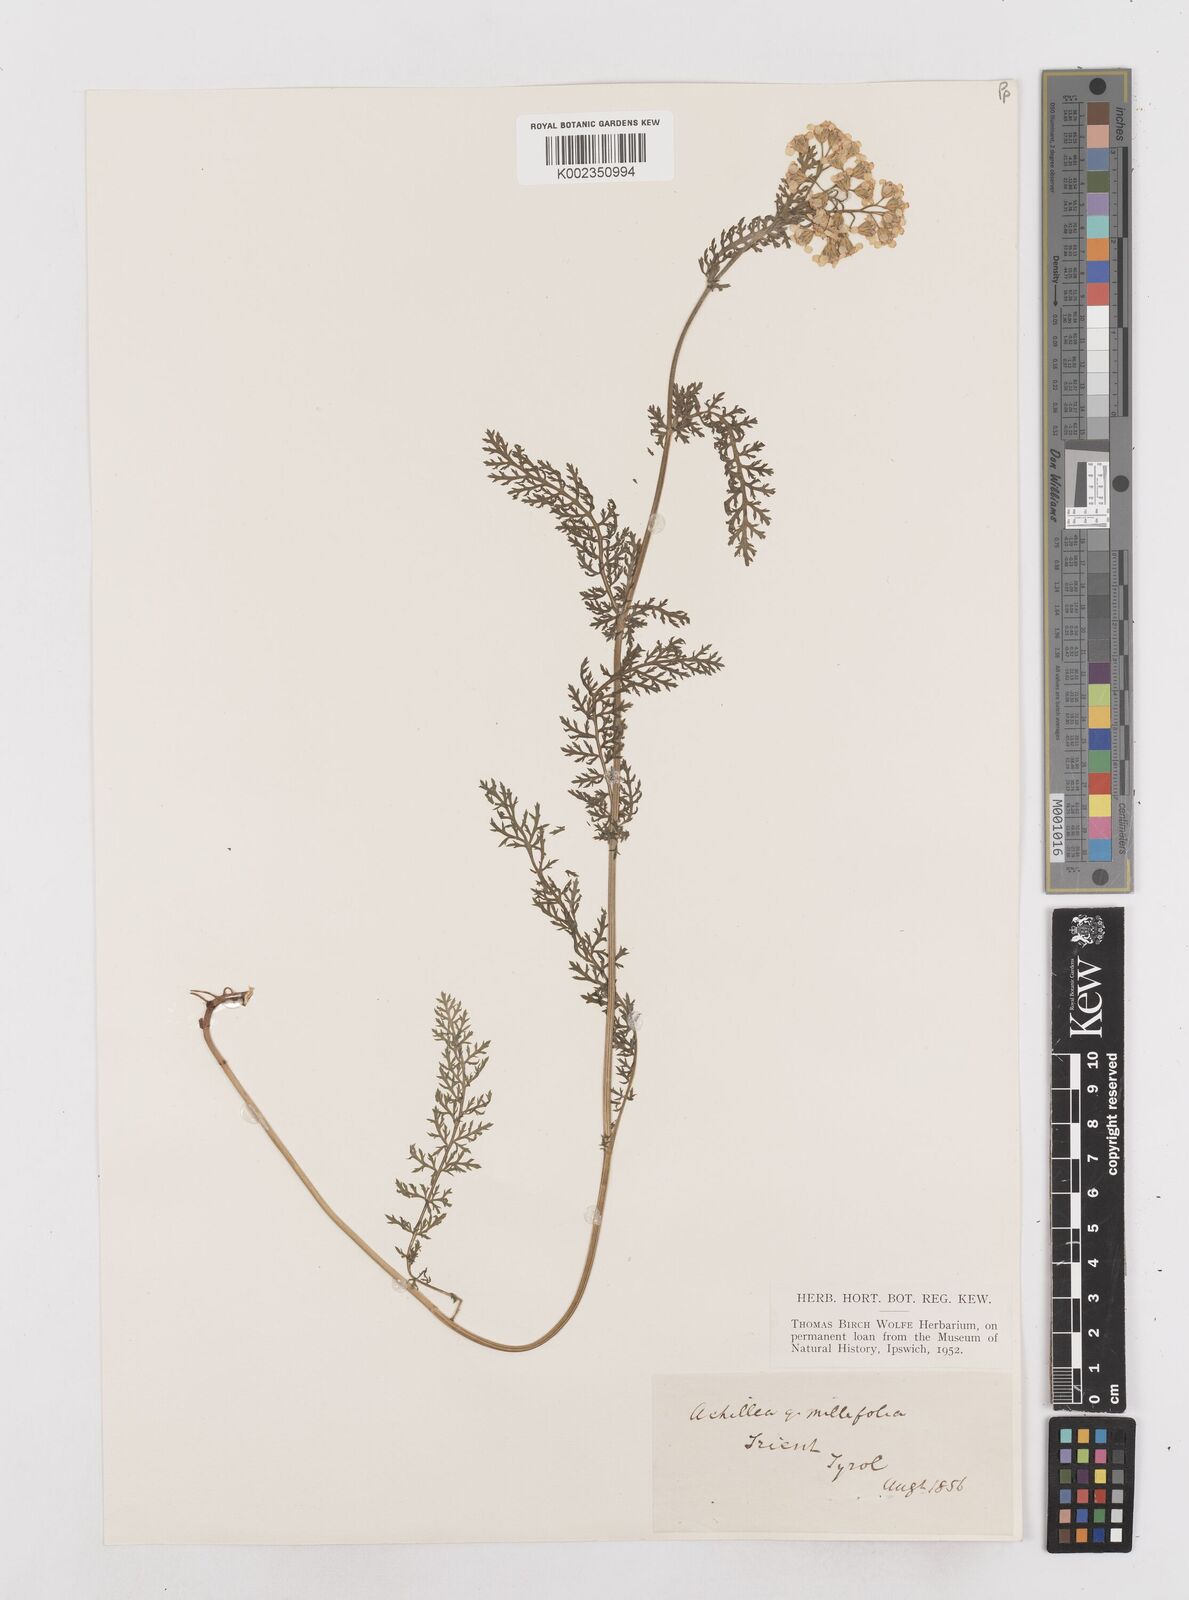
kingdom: Plantae
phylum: Tracheophyta
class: Magnoliopsida
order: Asterales
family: Asteraceae
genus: Achillea
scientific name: Achillea millefolium
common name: Yarrow
